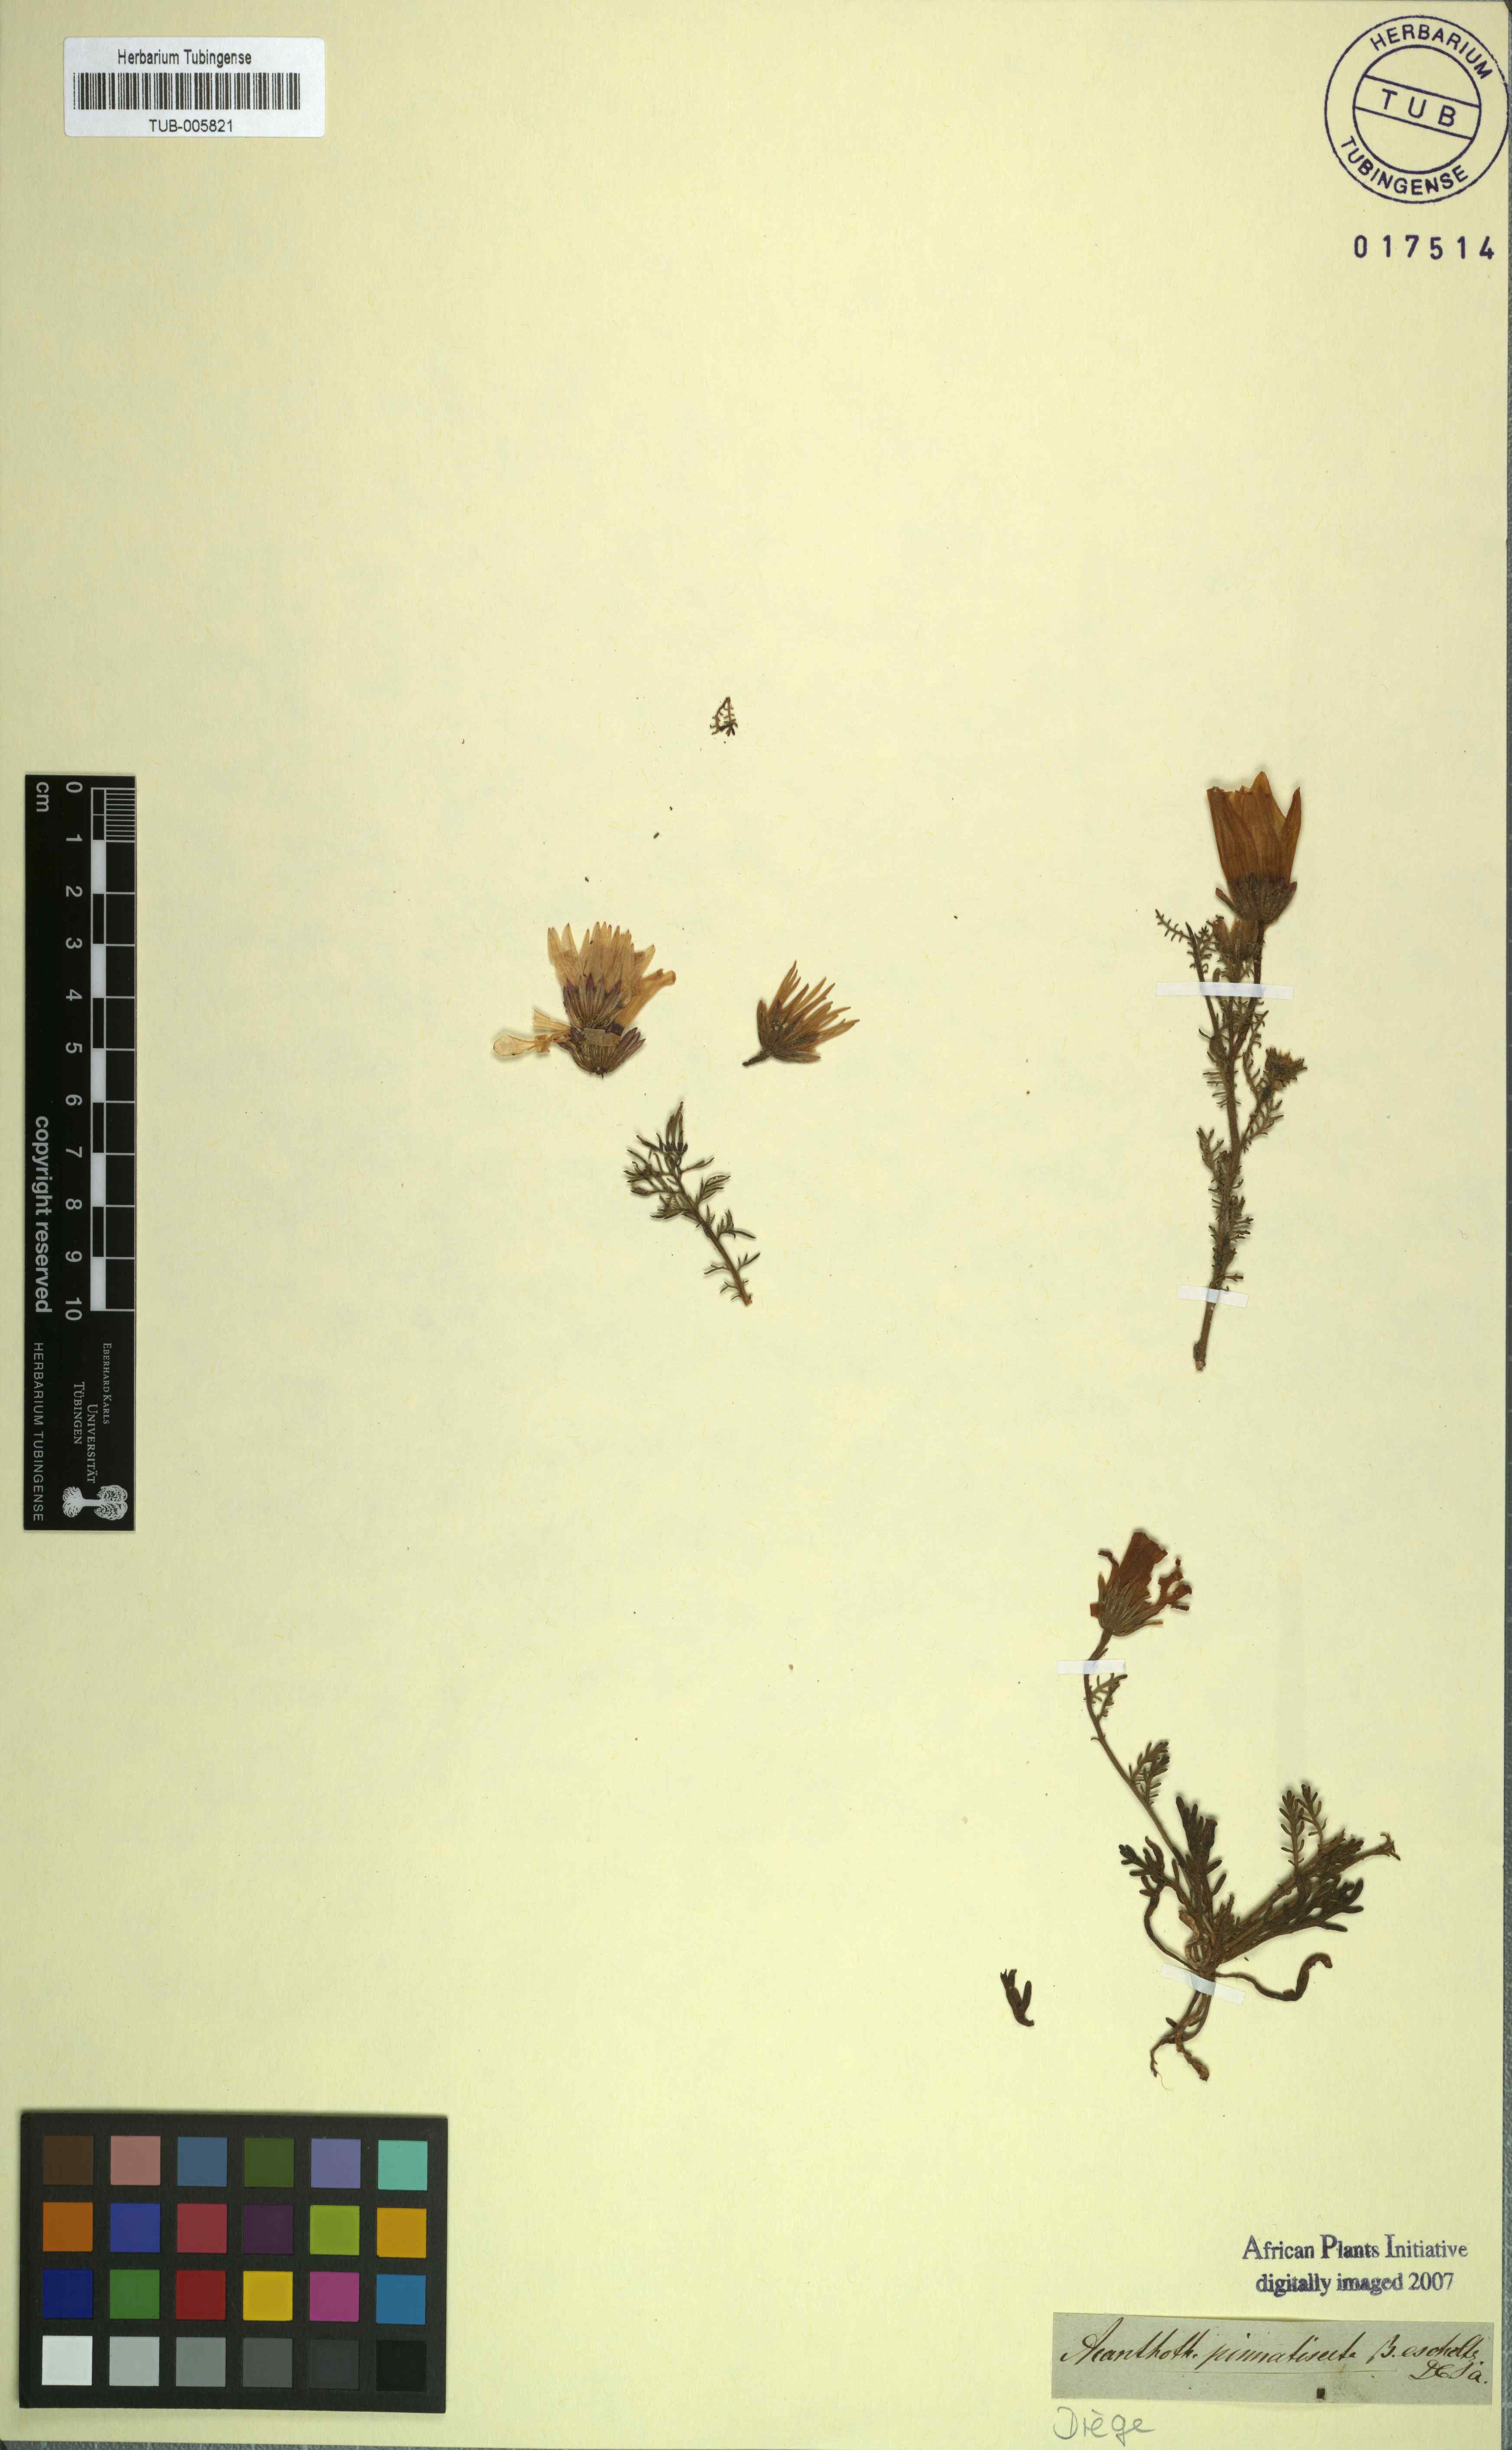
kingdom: Plantae
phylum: Tracheophyta
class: Magnoliopsida
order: Asterales
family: Asteraceae
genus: Dimorphotheca
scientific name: Dimorphotheca pinnata
